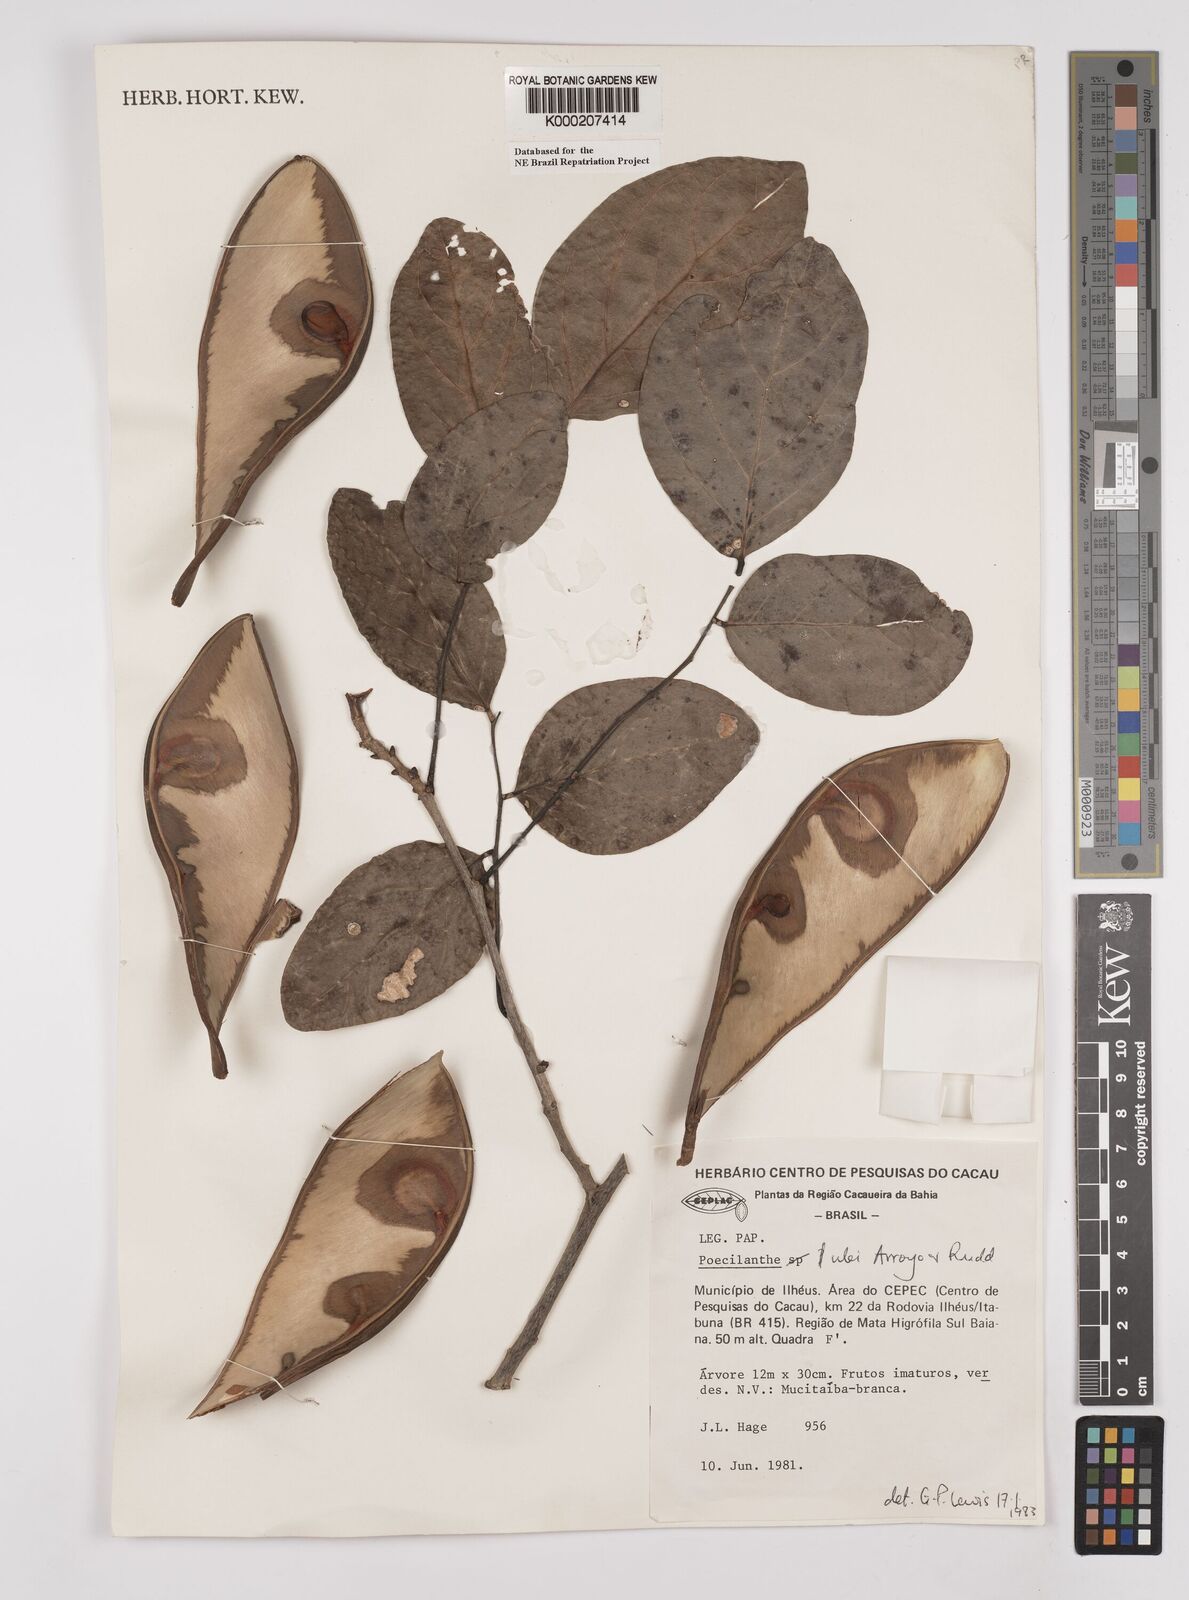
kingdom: Plantae
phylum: Tracheophyta
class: Magnoliopsida
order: Fabales
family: Fabaceae
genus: Poecilanthe
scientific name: Poecilanthe ulei
